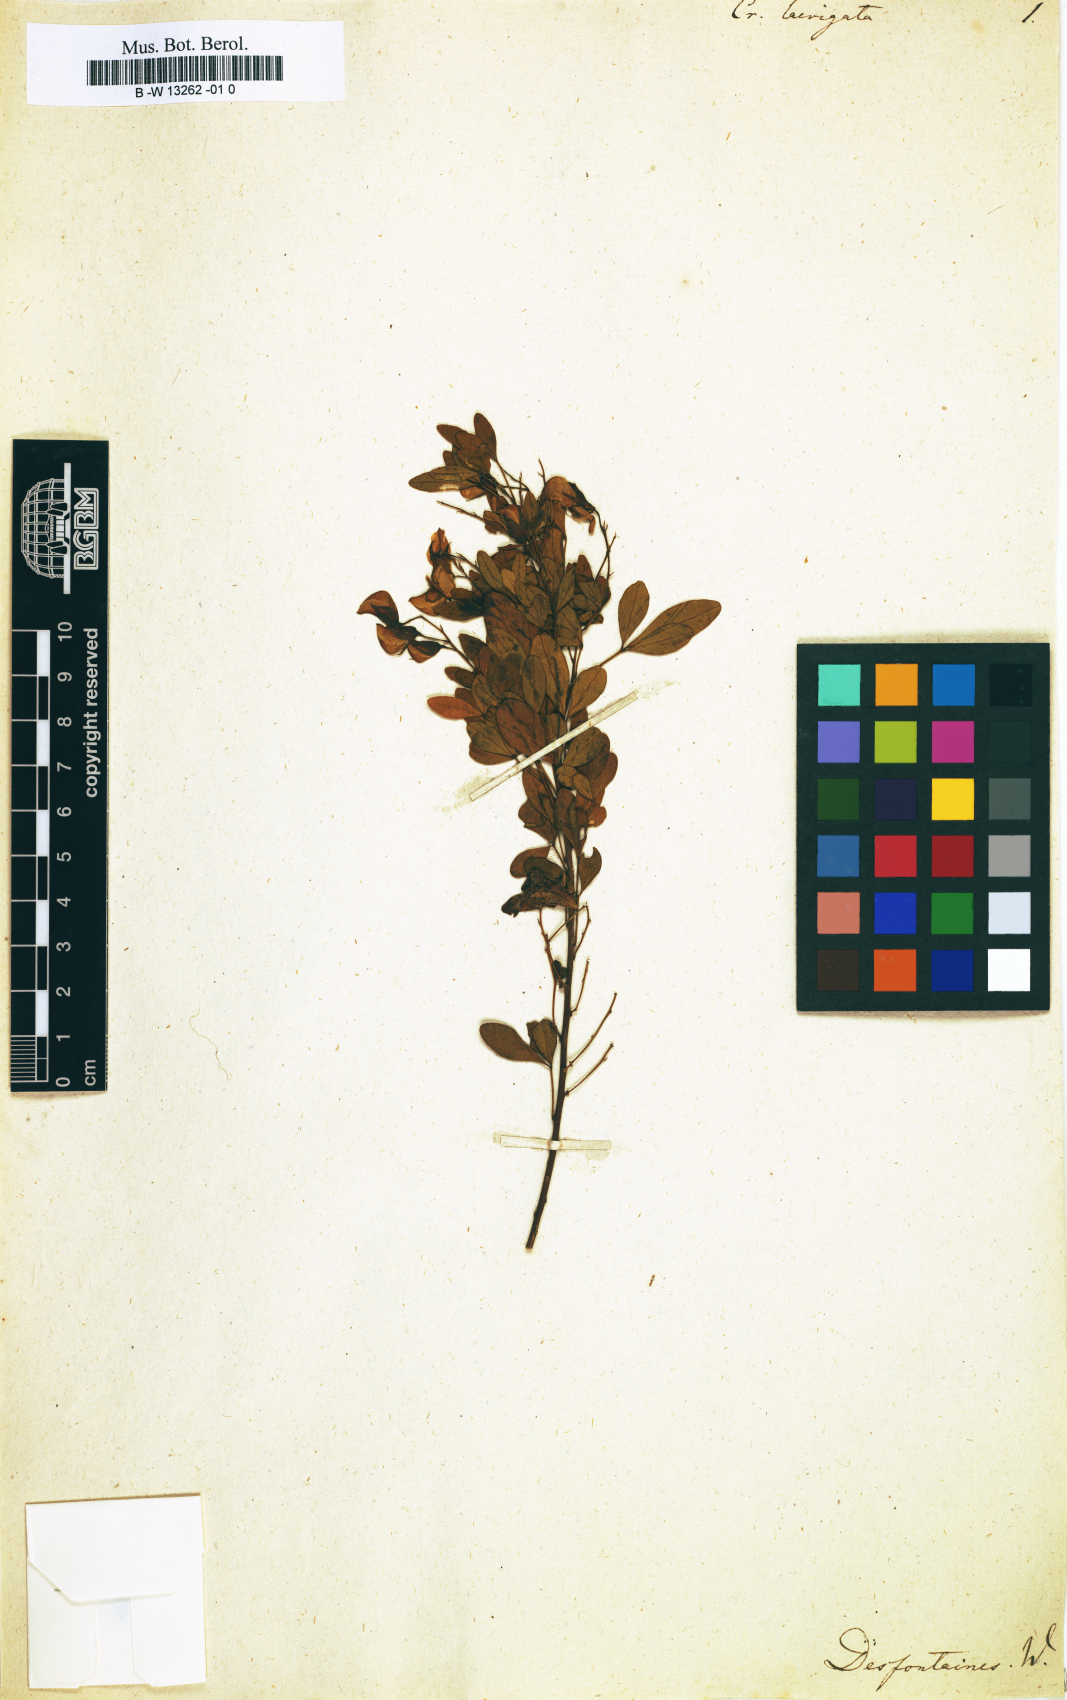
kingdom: Plantae
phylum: Tracheophyta
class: Magnoliopsida
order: Fabales
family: Fabaceae
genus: Crotalaria
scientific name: Crotalaria laevigata
